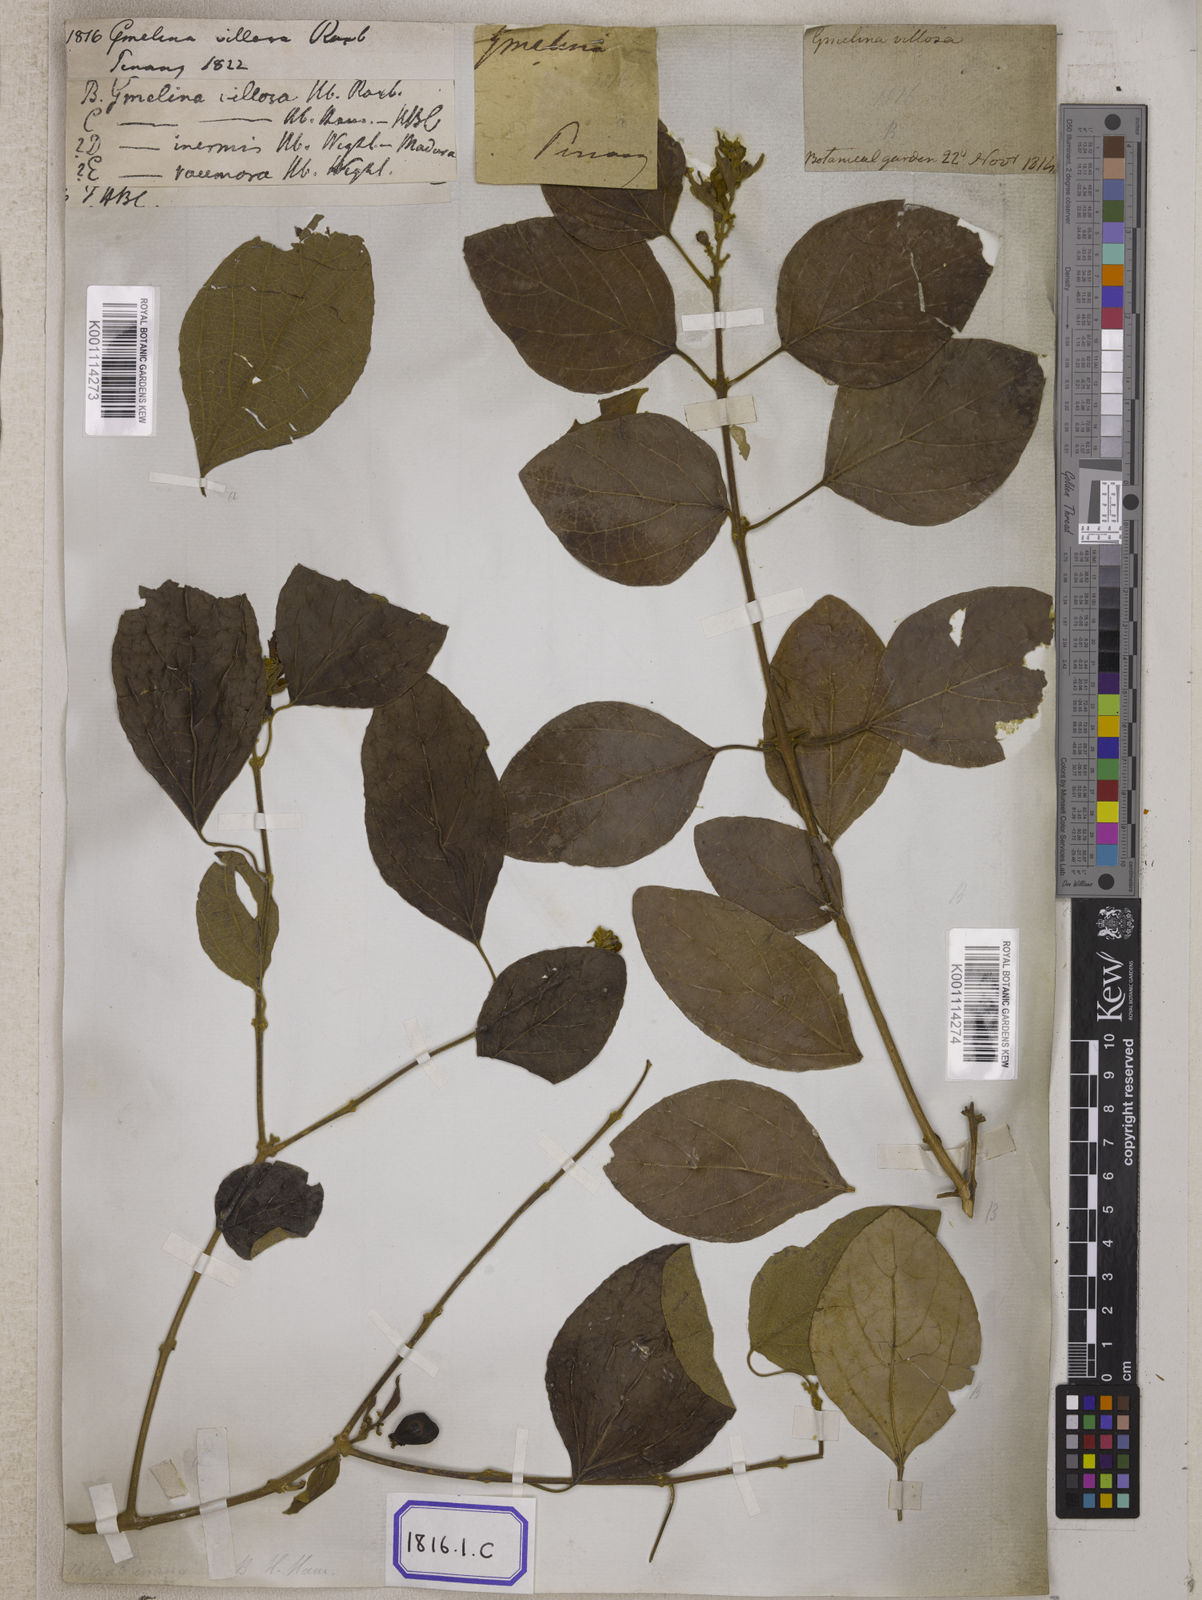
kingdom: Plantae
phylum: Tracheophyta
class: Magnoliopsida
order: Lamiales
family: Lamiaceae
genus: Gmelina
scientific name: Gmelina elliptica
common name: Badhara-bush
